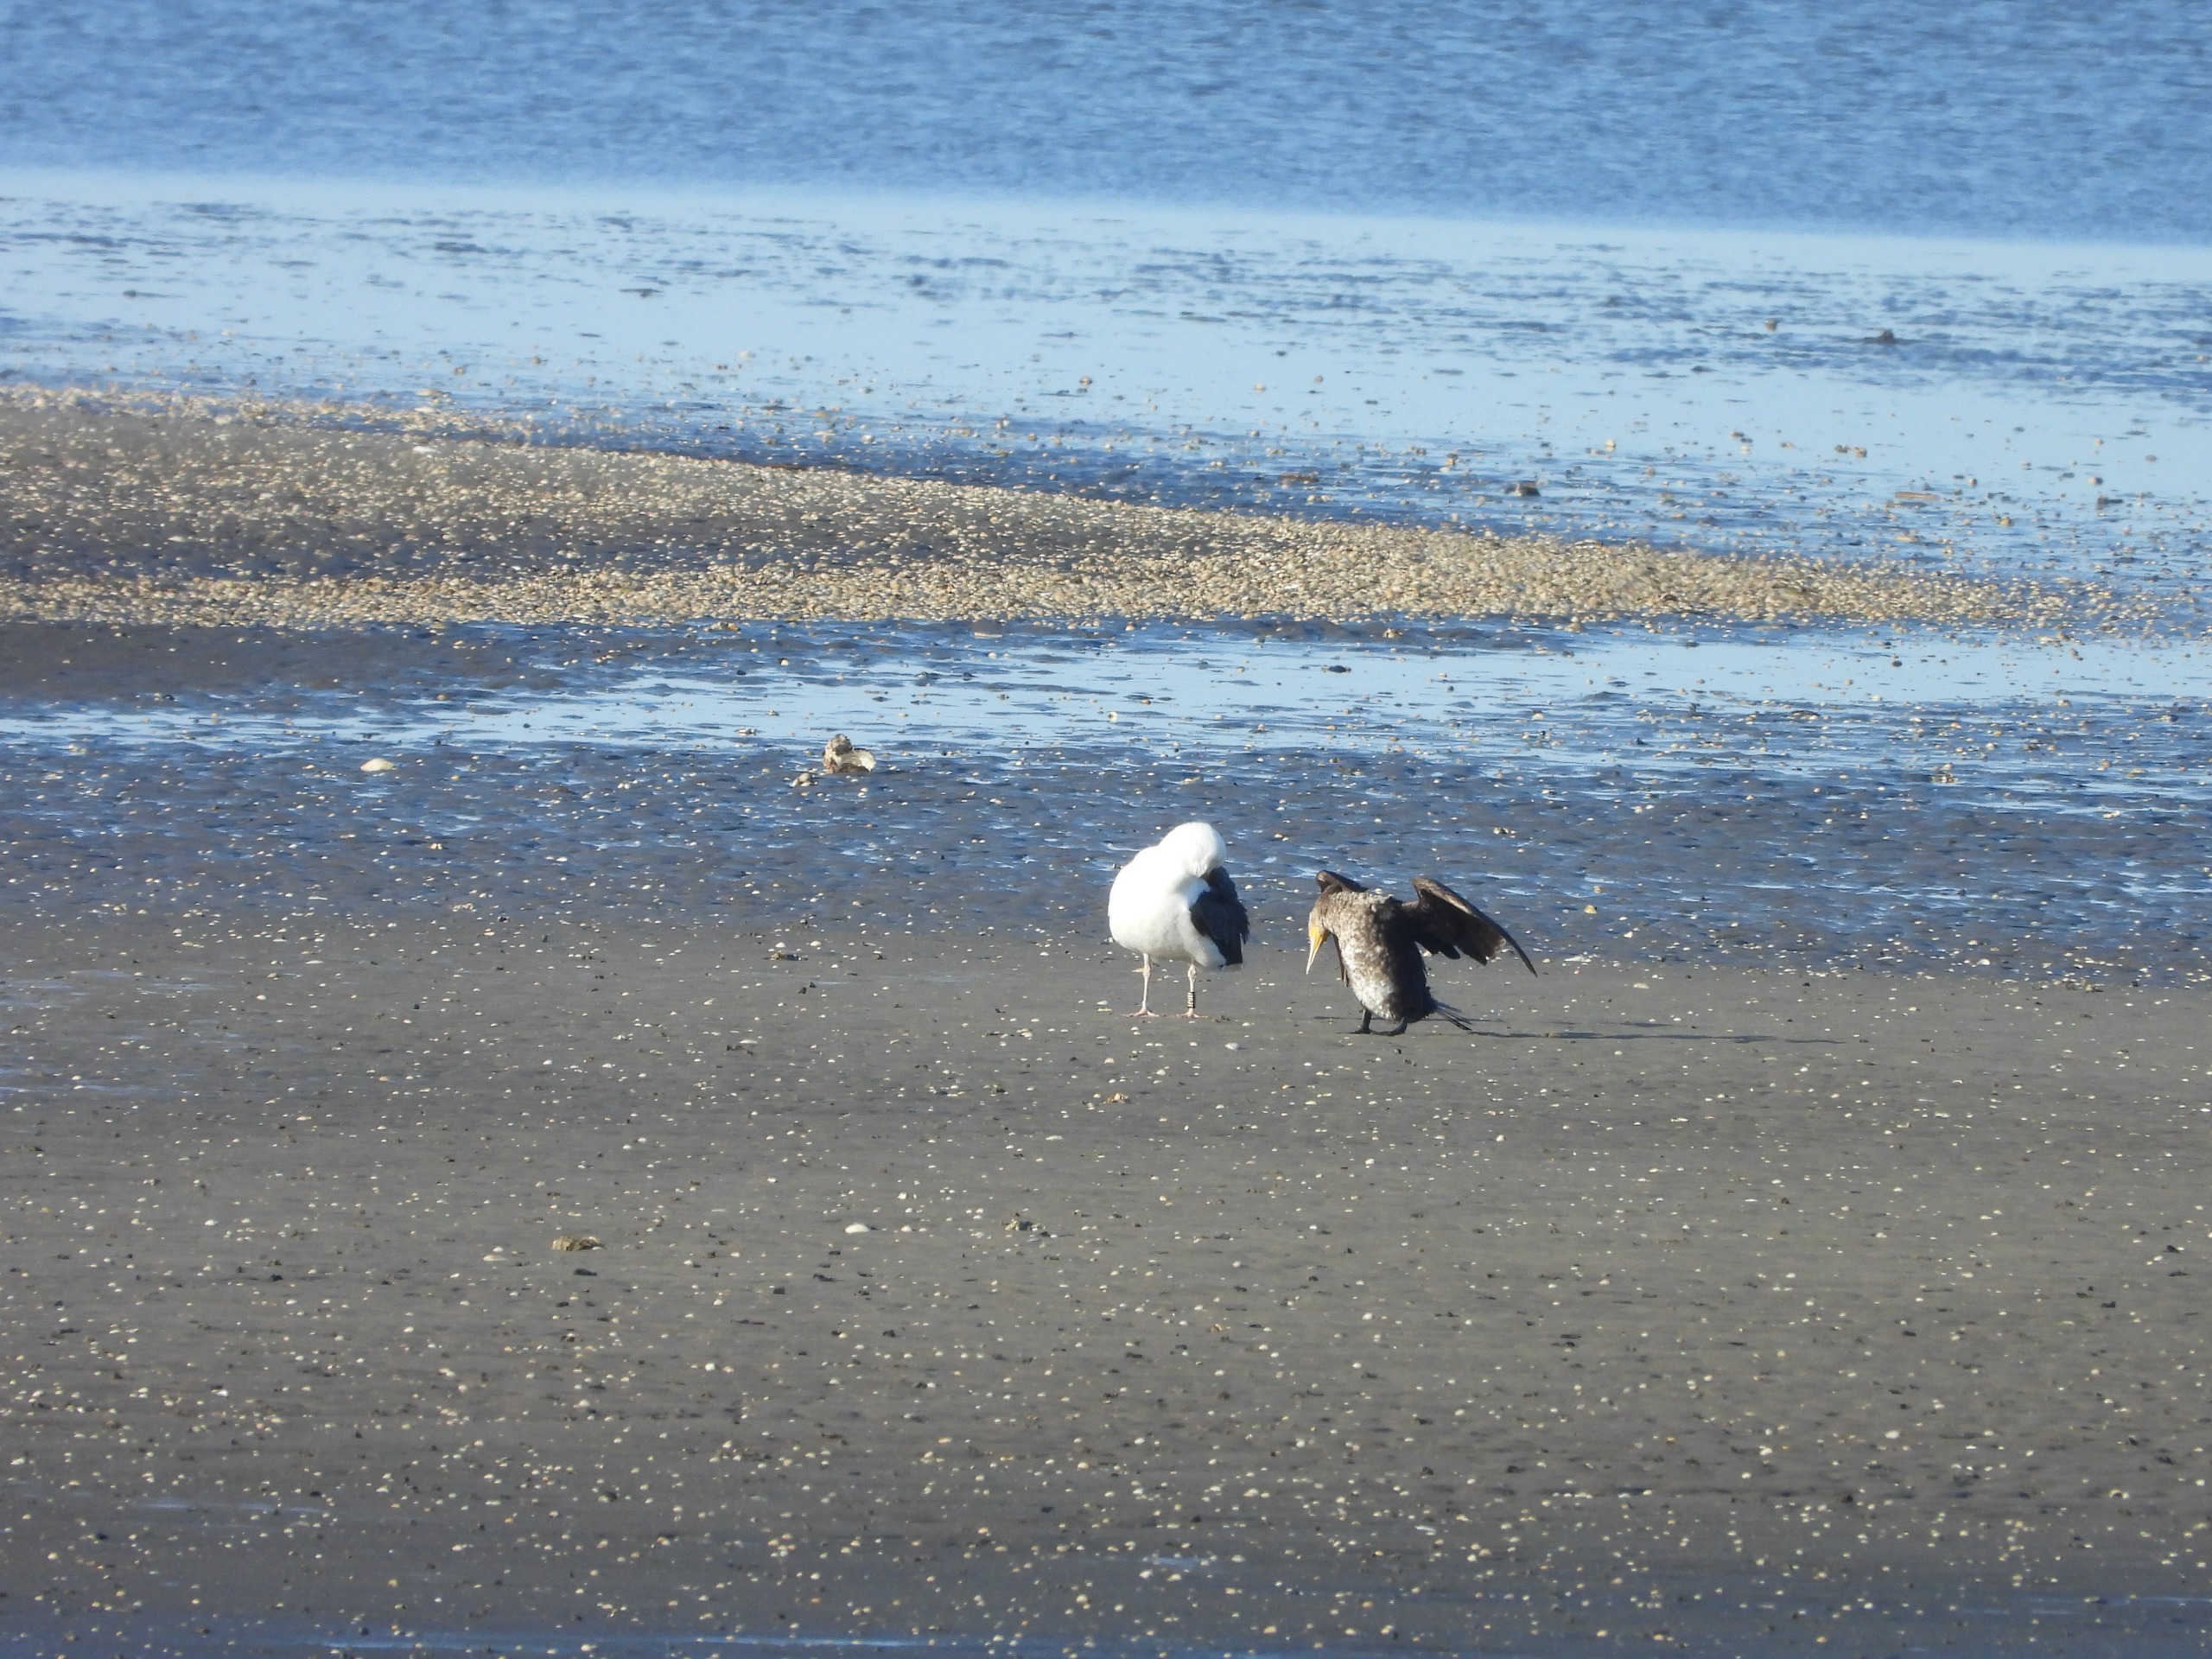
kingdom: Animalia
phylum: Chordata
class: Aves
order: Charadriiformes
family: Laridae
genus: Larus
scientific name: Larus marinus
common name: Svartbag
